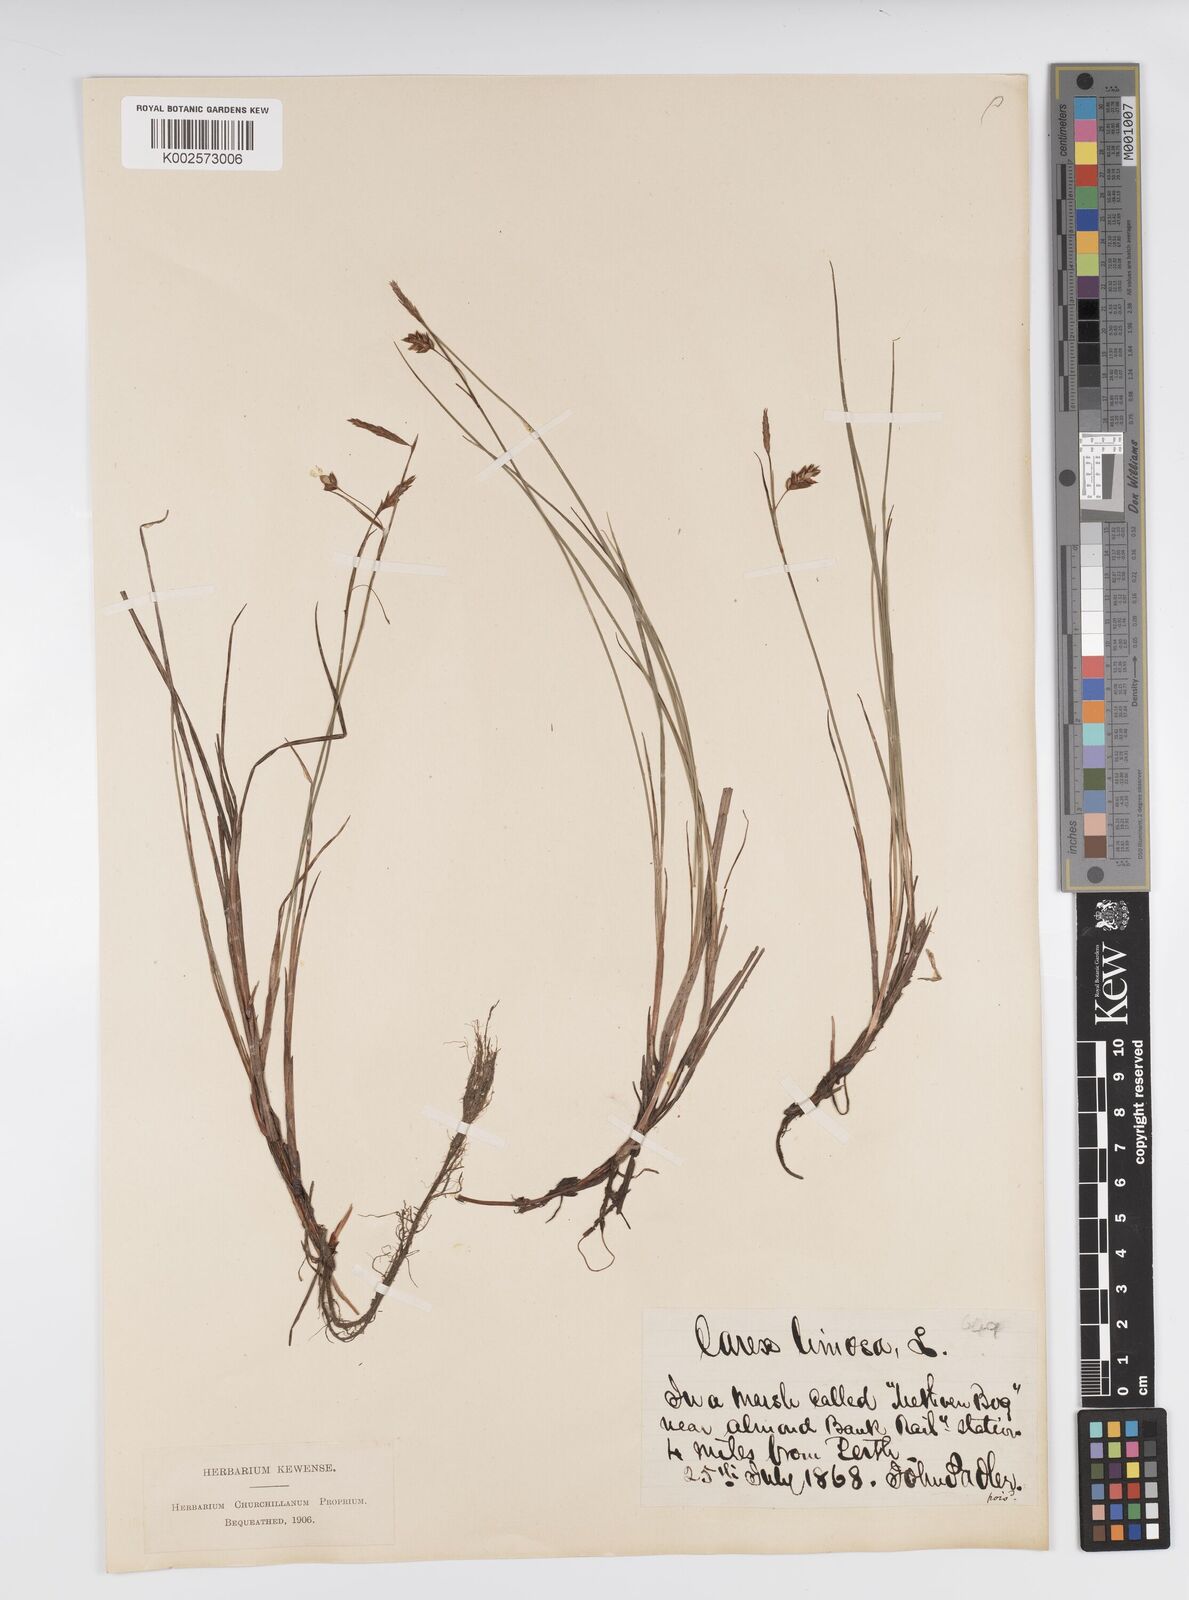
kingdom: Plantae
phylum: Tracheophyta
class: Liliopsida
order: Poales
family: Cyperaceae
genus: Carex
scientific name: Carex limosa
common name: Bog sedge
